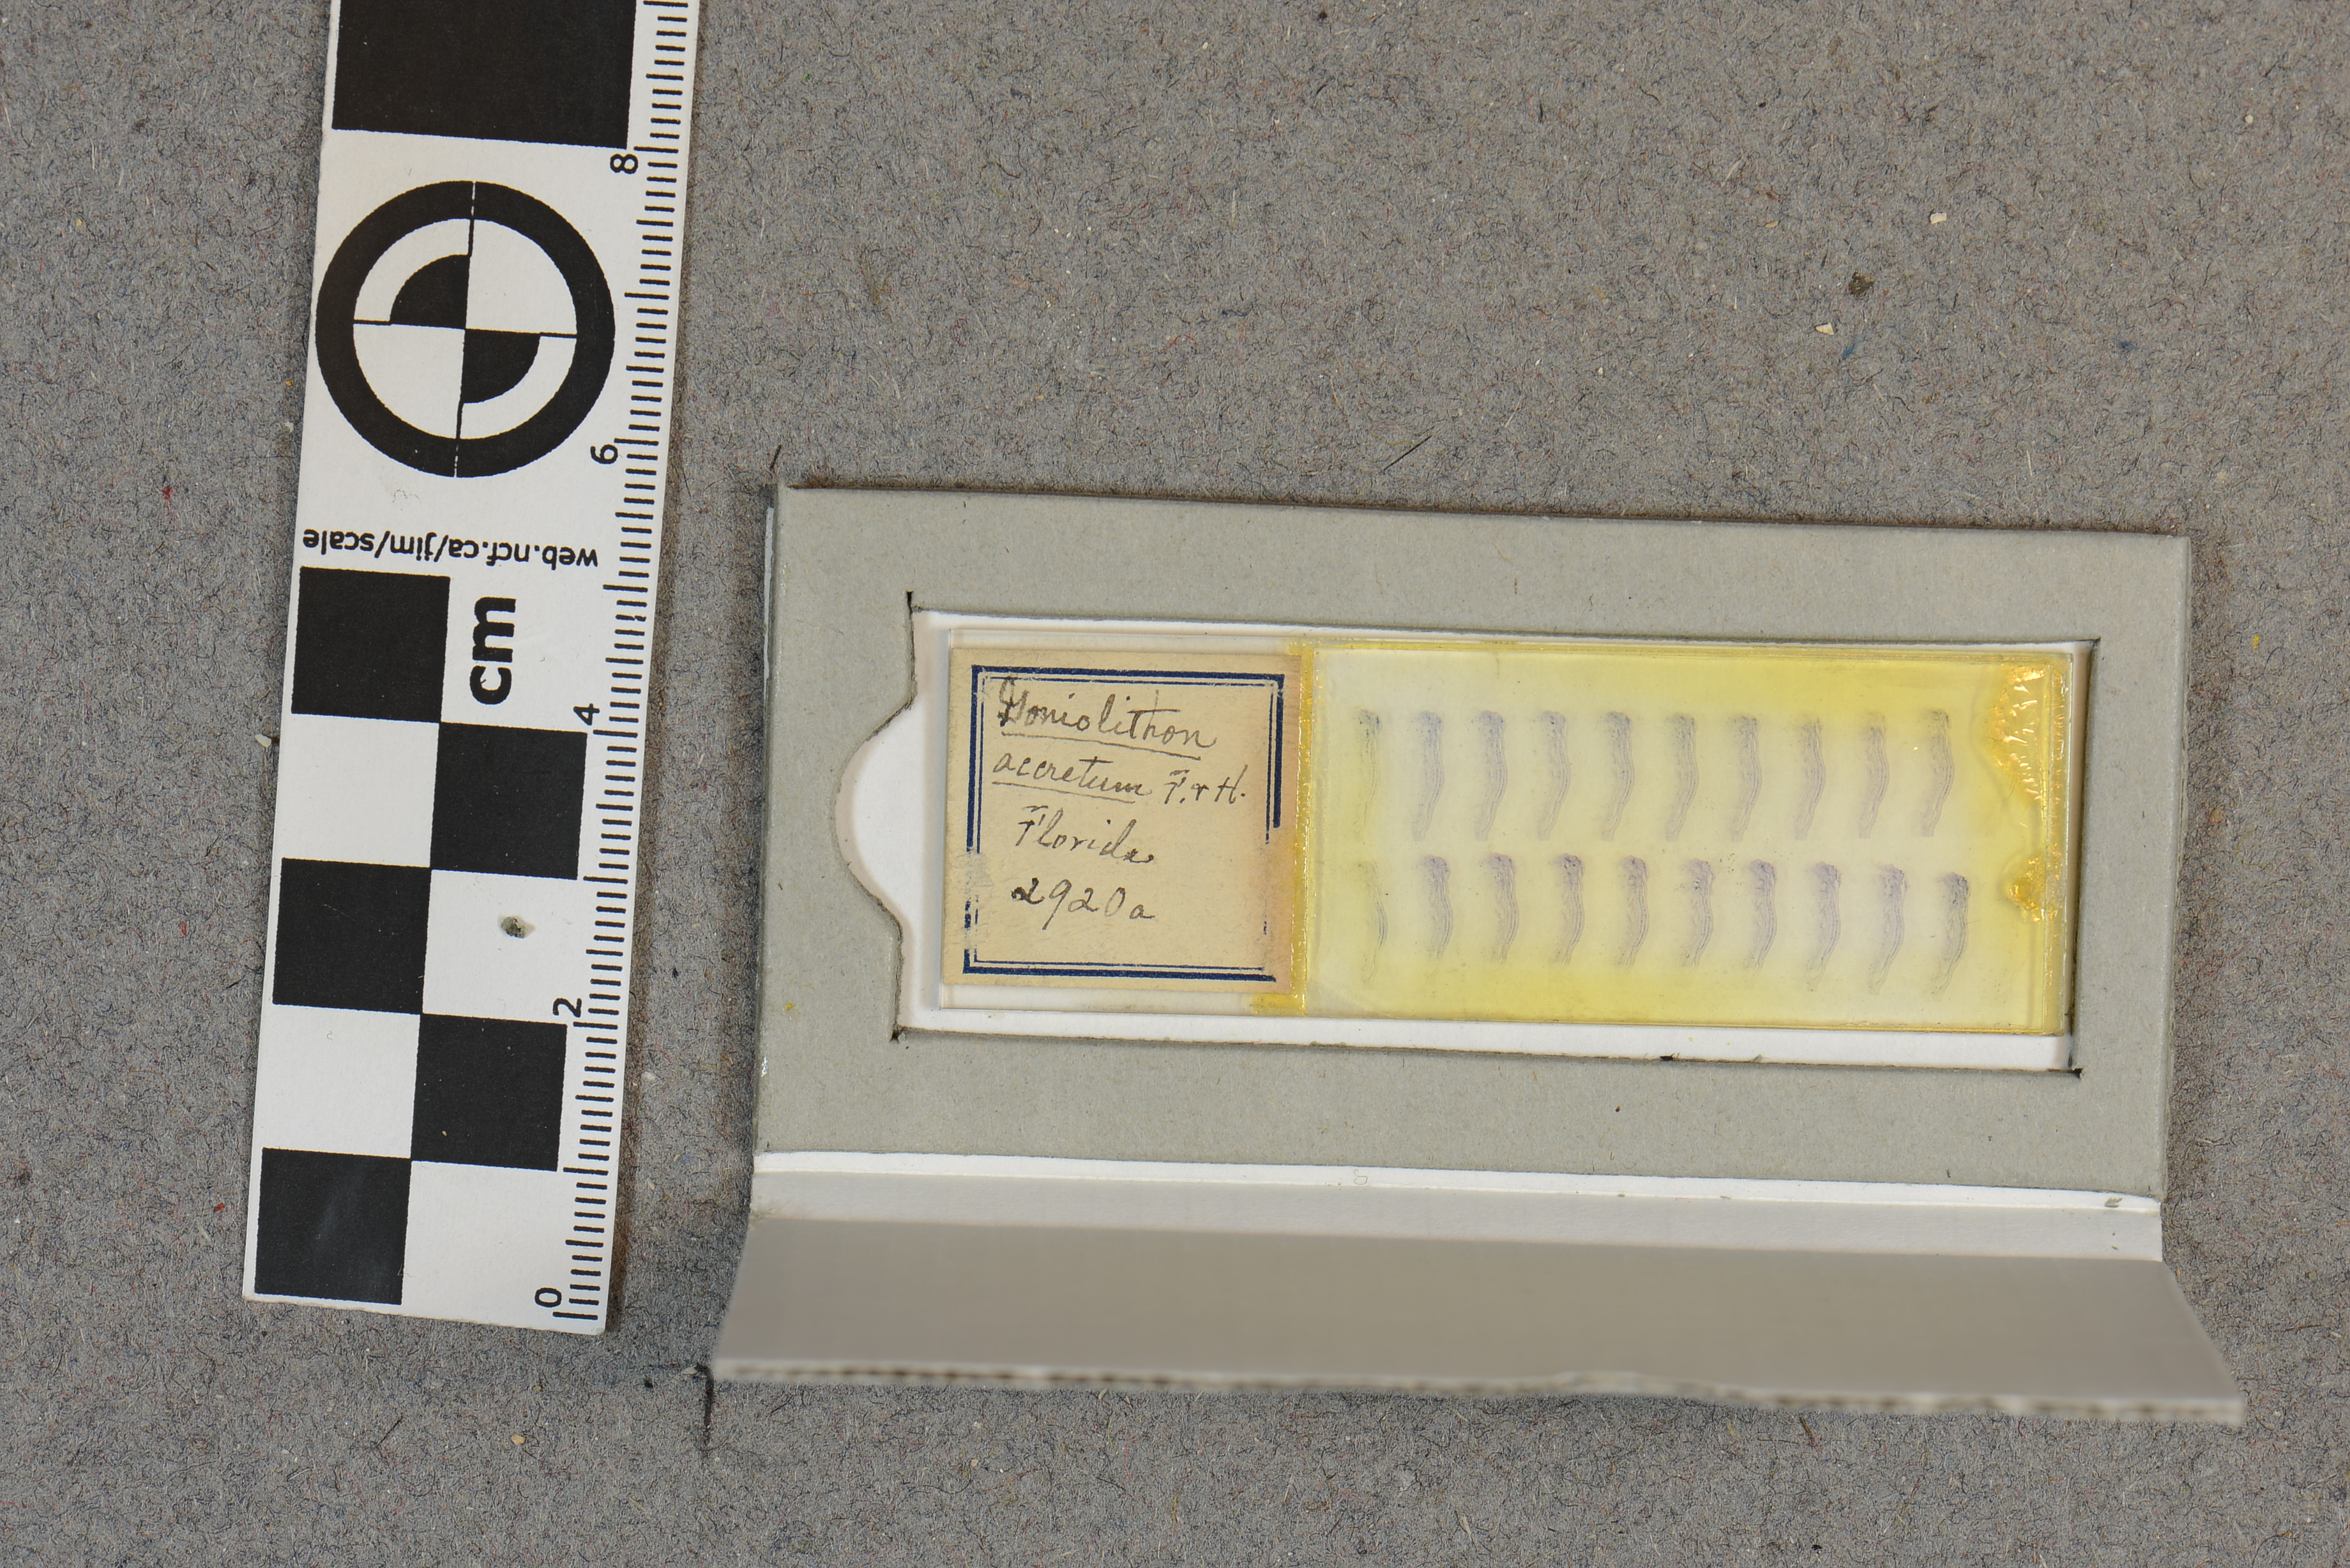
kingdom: Plantae
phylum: Rhodophyta
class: Florideophyceae
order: Corallinales
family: Spongitaceae
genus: Neogoniolithon
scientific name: Neogoniolithon accretum
